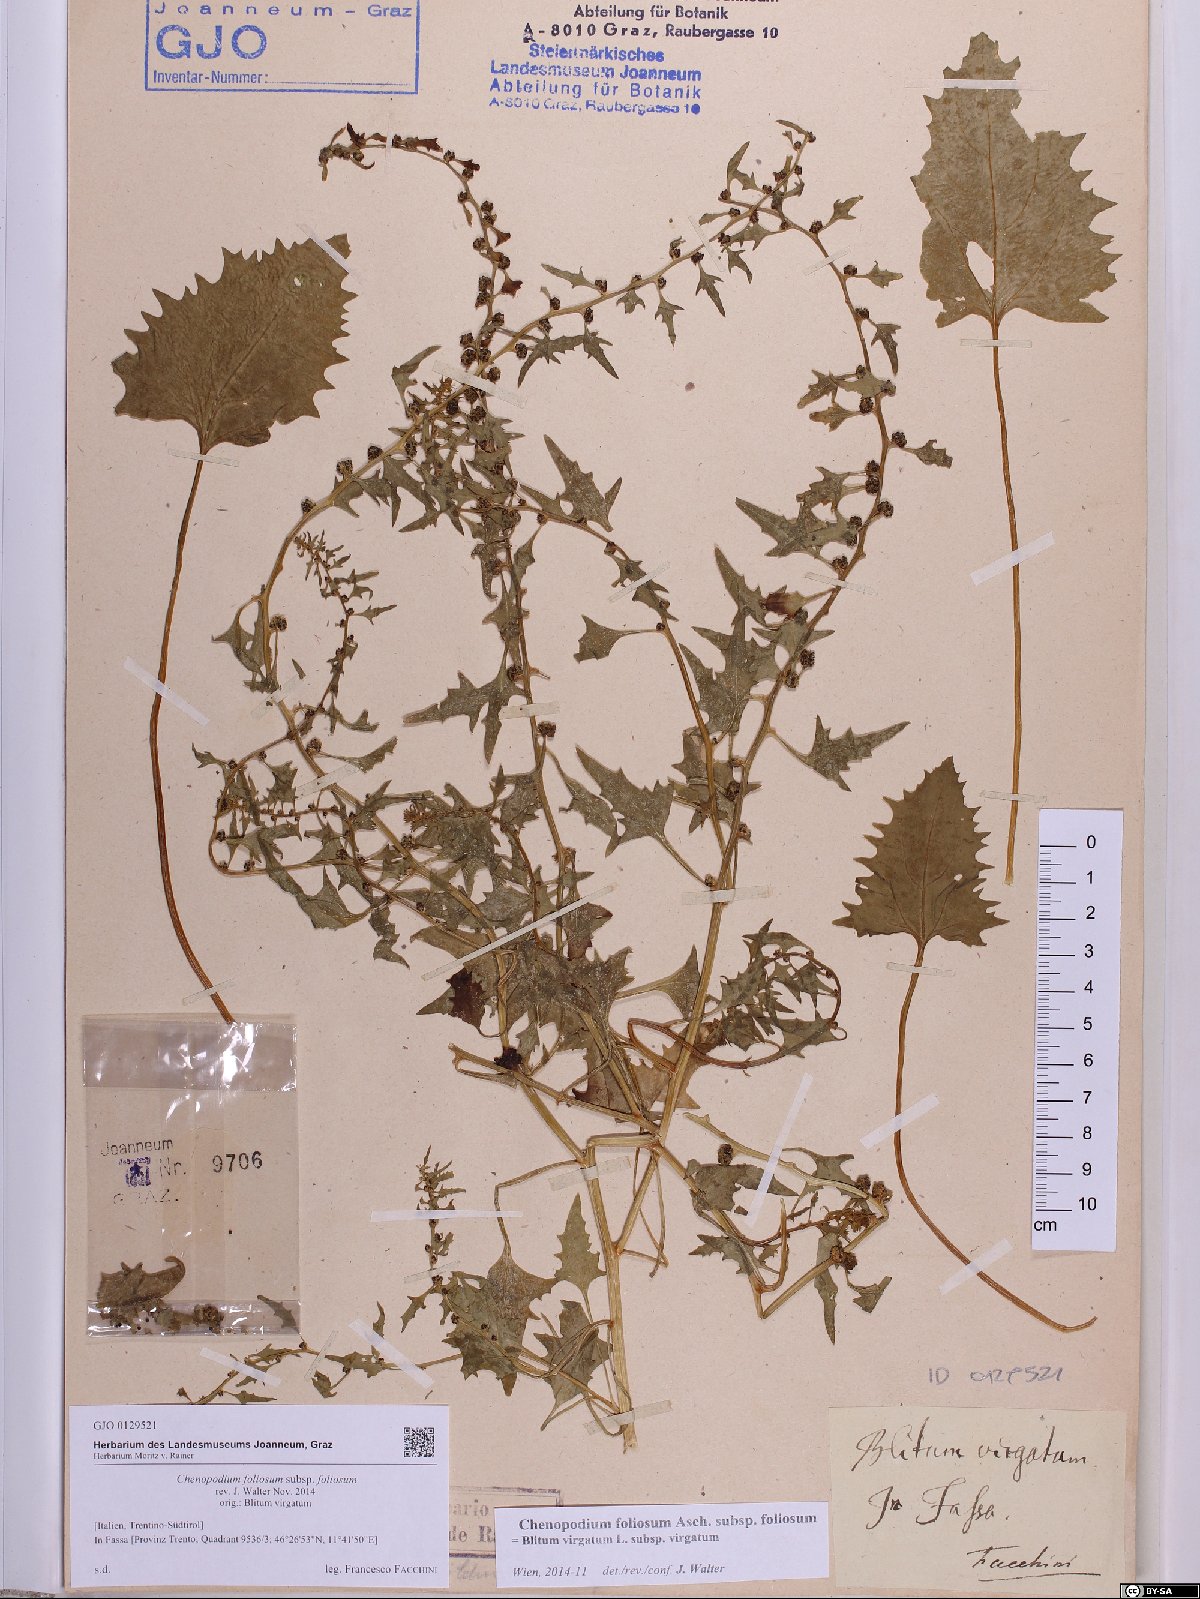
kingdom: Plantae
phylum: Tracheophyta
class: Magnoliopsida
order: Caryophyllales
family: Amaranthaceae
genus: Blitum
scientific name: Blitum virgatum
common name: Strawberry goosefoot
